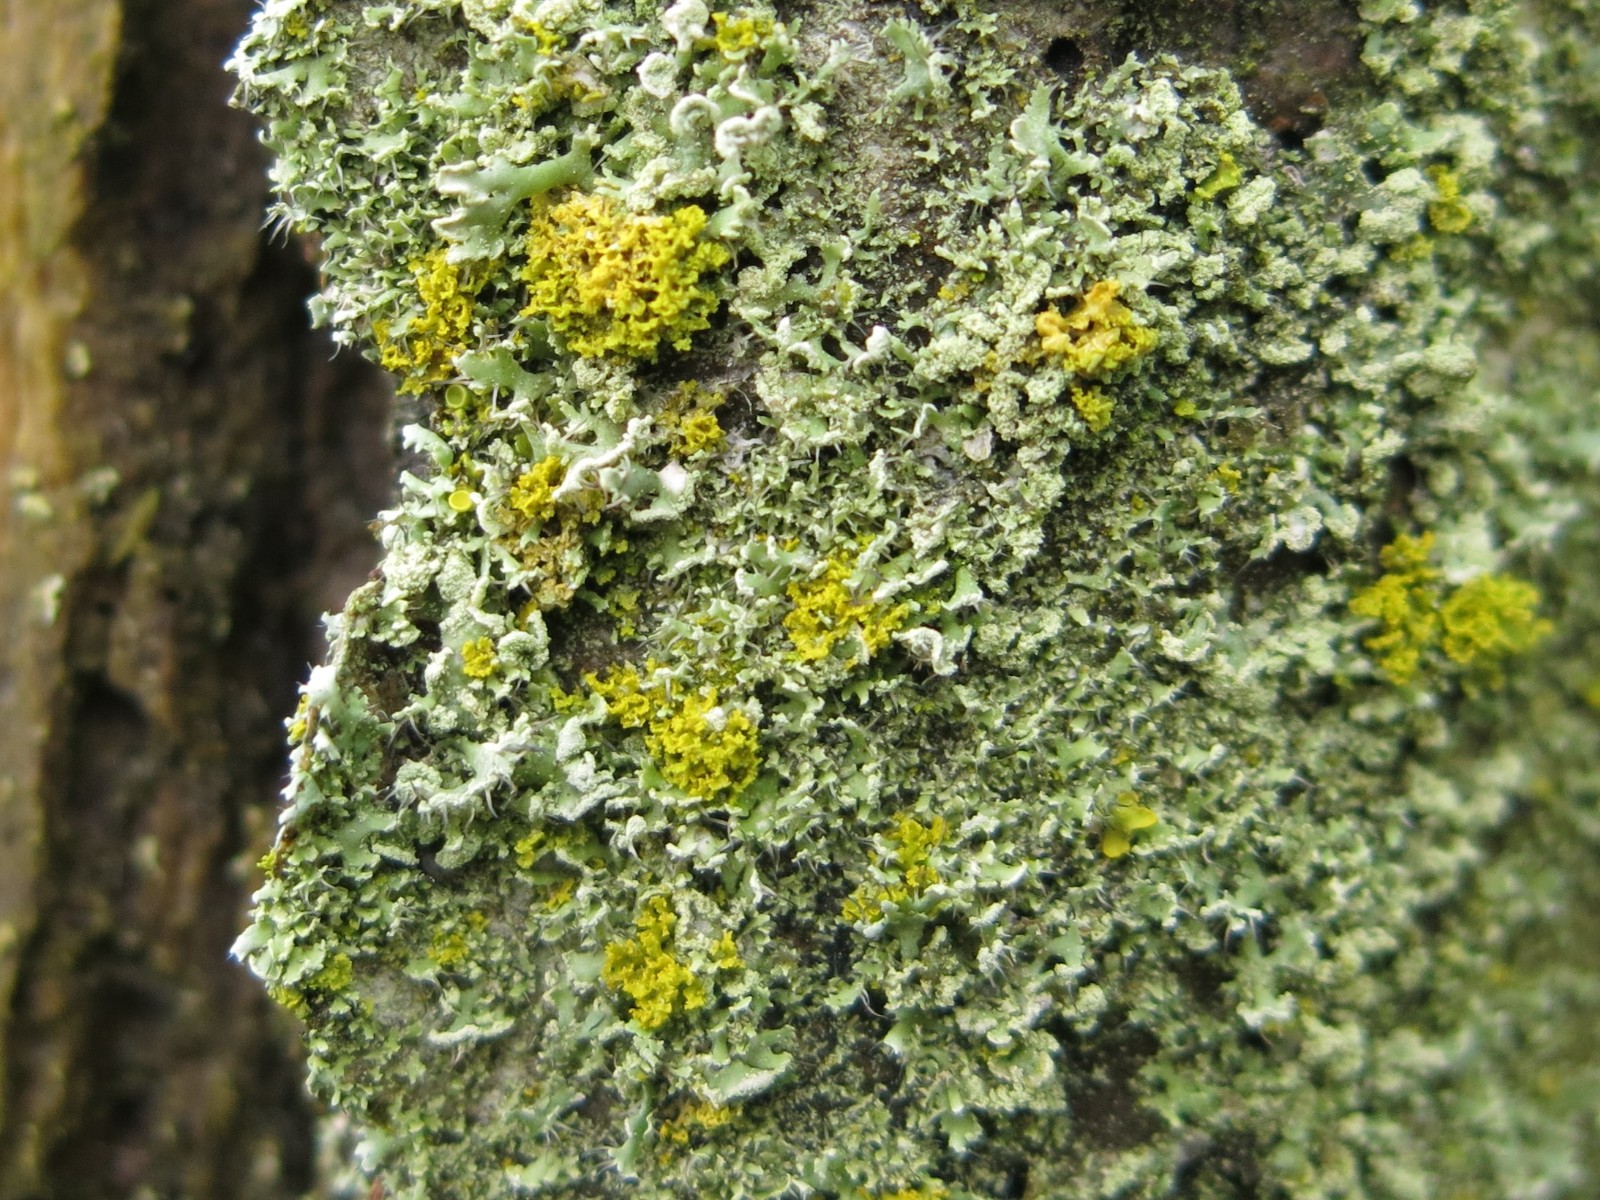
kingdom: Fungi
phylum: Ascomycota
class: Lecanoromycetes
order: Teloschistales
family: Teloschistaceae
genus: Polycauliona
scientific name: Polycauliona candelaria
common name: tue-orangelav
